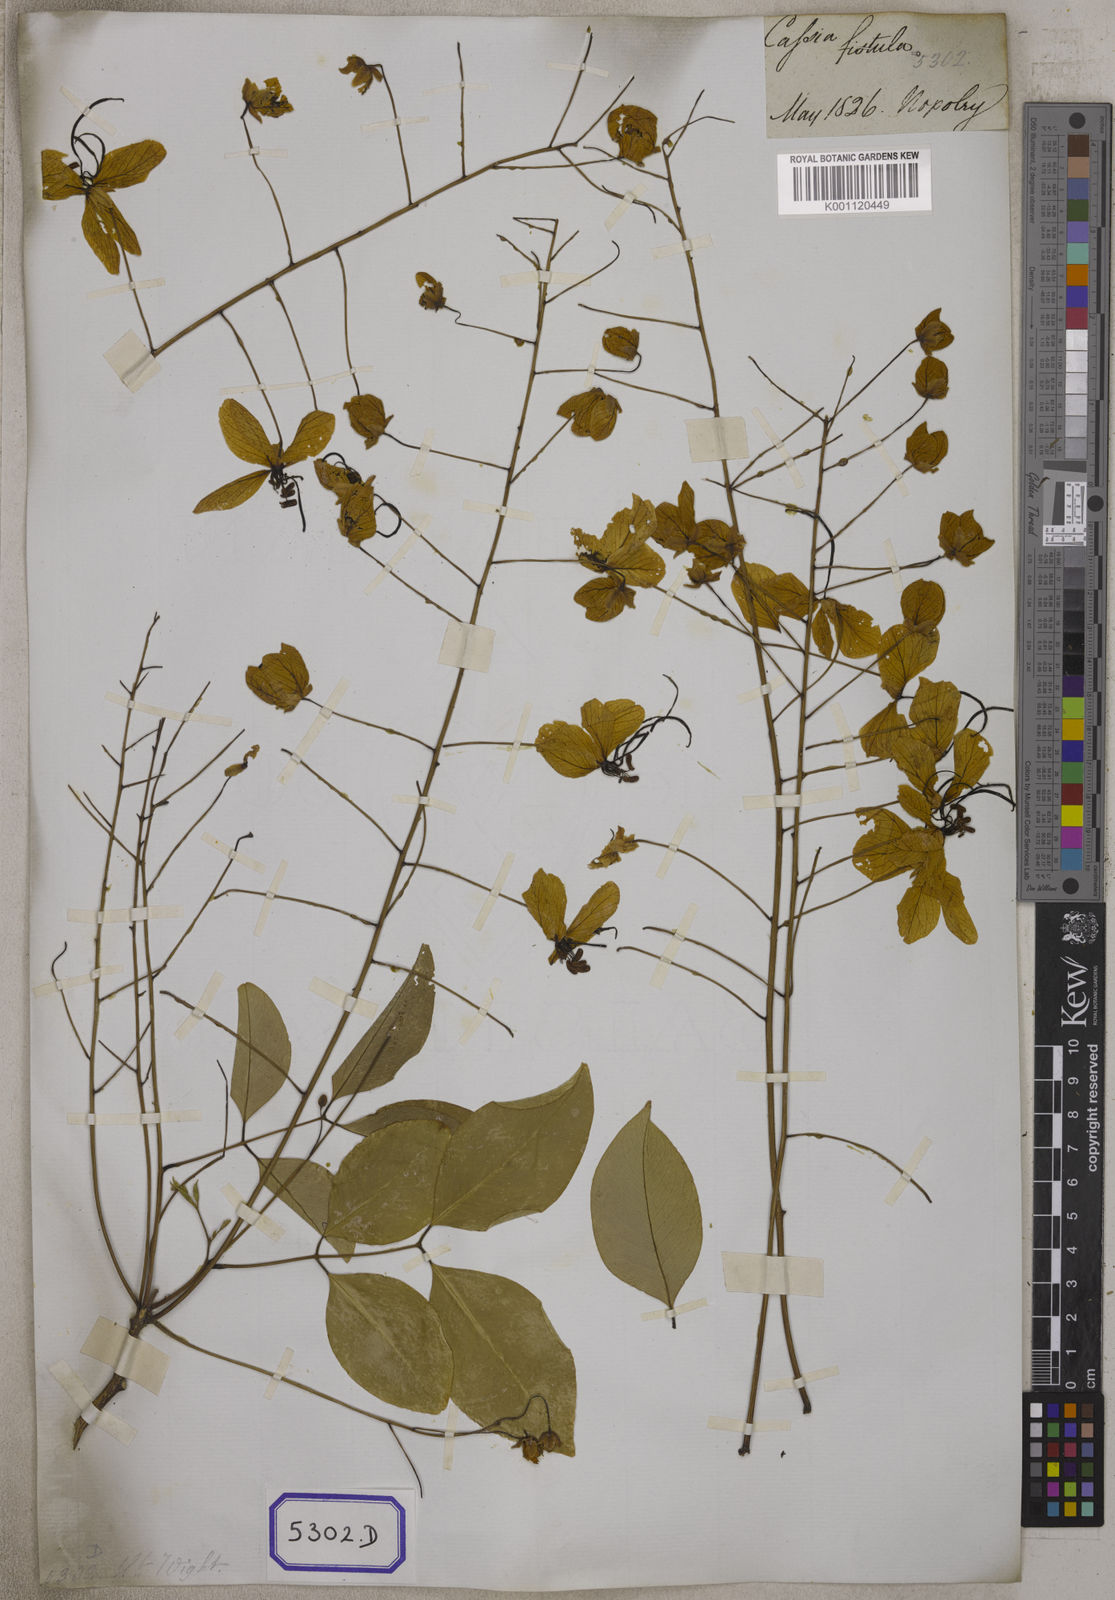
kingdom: Plantae
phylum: Tracheophyta
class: Magnoliopsida
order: Fabales
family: Fabaceae
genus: Cassia
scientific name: Cassia fistula
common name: Golden shower
